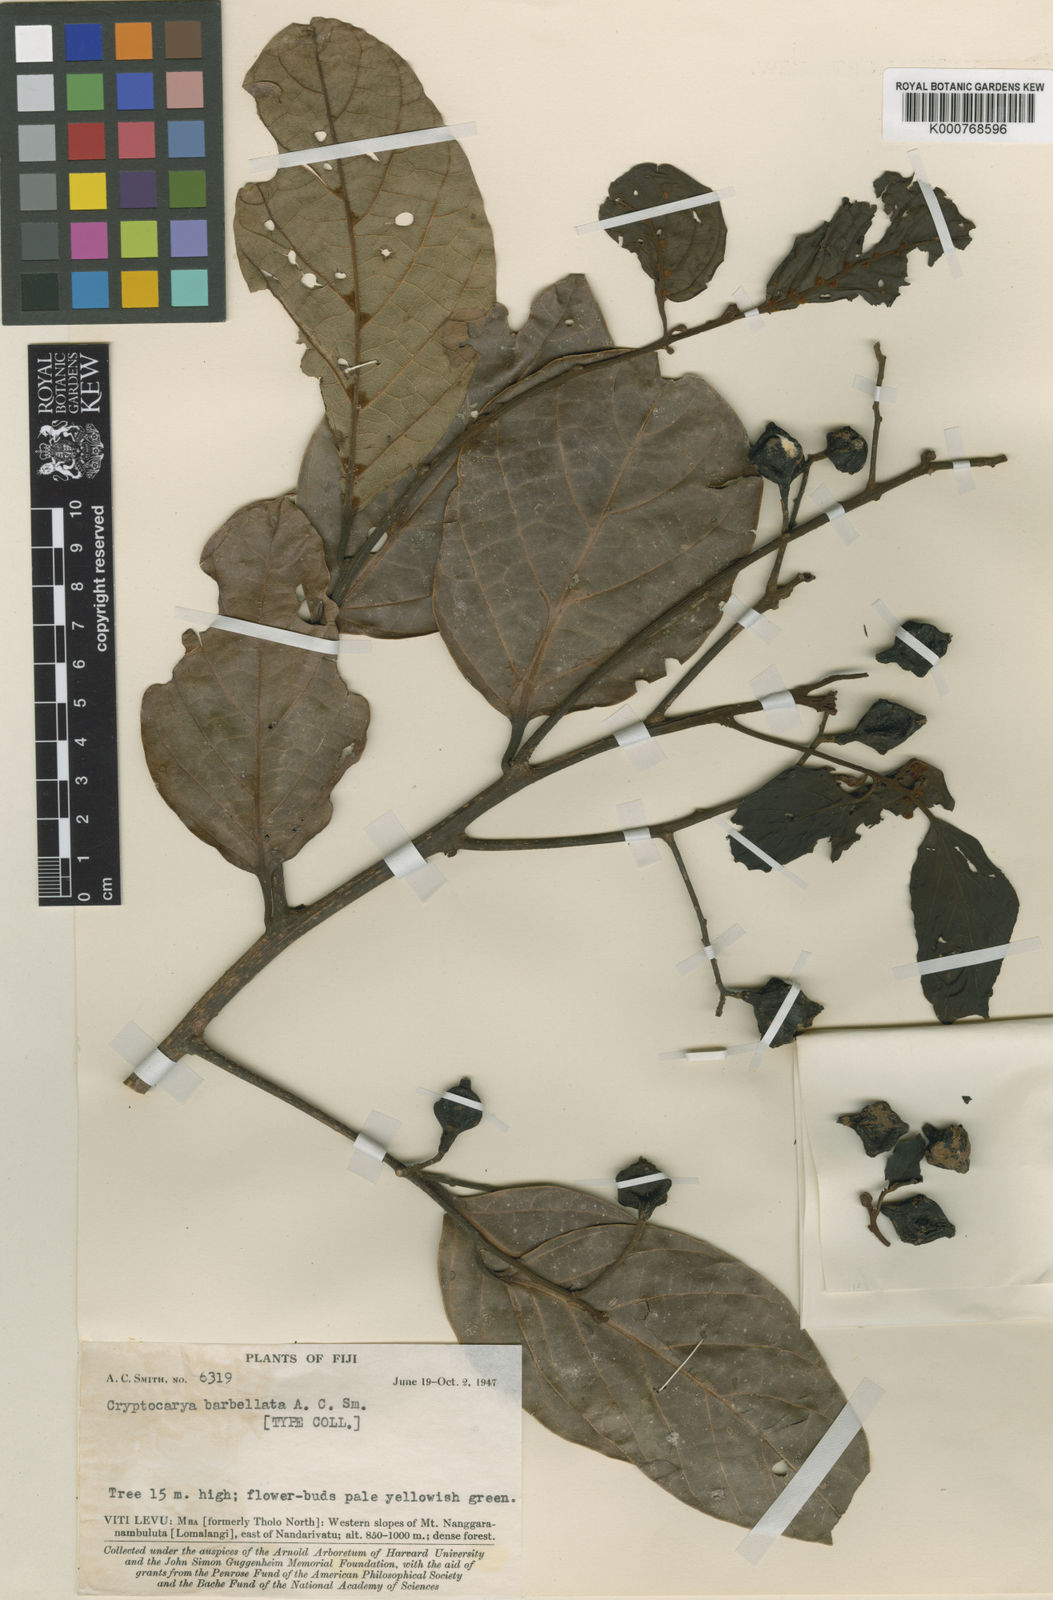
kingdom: Plantae
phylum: Tracheophyta
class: Magnoliopsida
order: Laurales
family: Lauraceae
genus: Cryptocarya
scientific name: Cryptocarya barbellata
